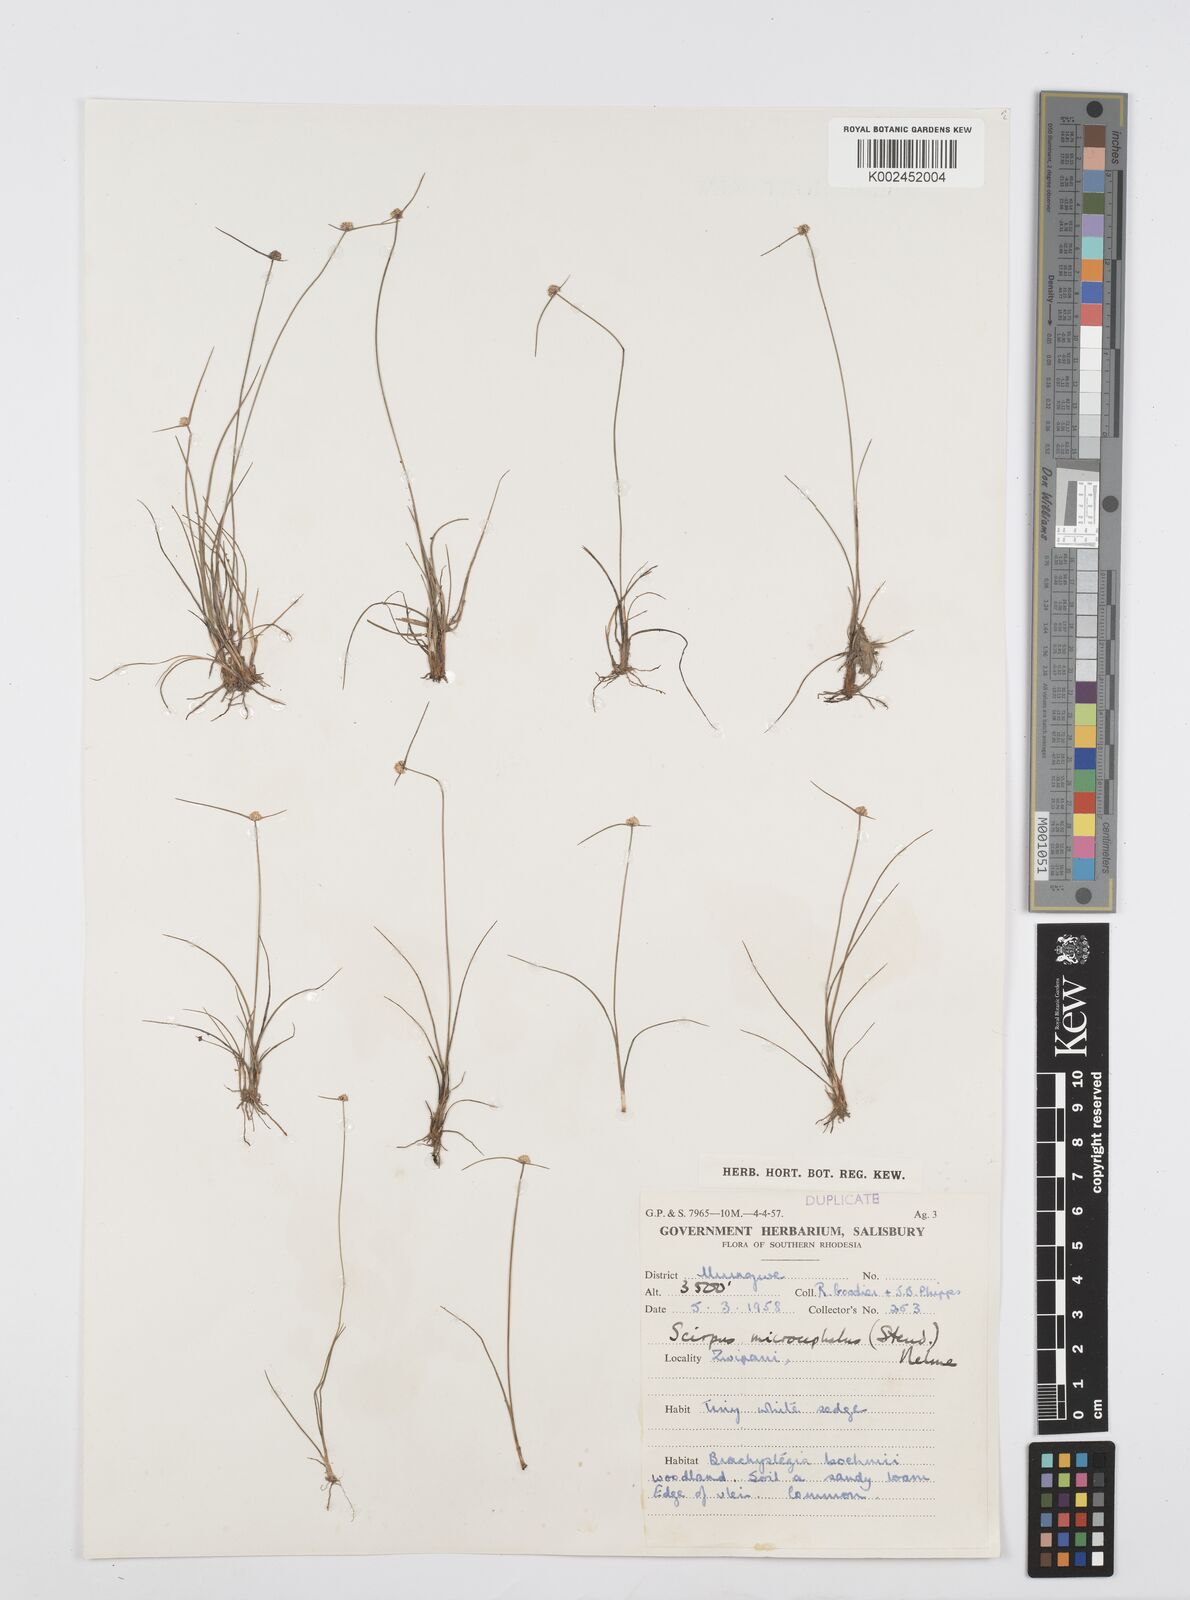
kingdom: Plantae
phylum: Tracheophyta
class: Liliopsida
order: Poales
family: Cyperaceae
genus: Cyperus
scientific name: Cyperus conglobatus
